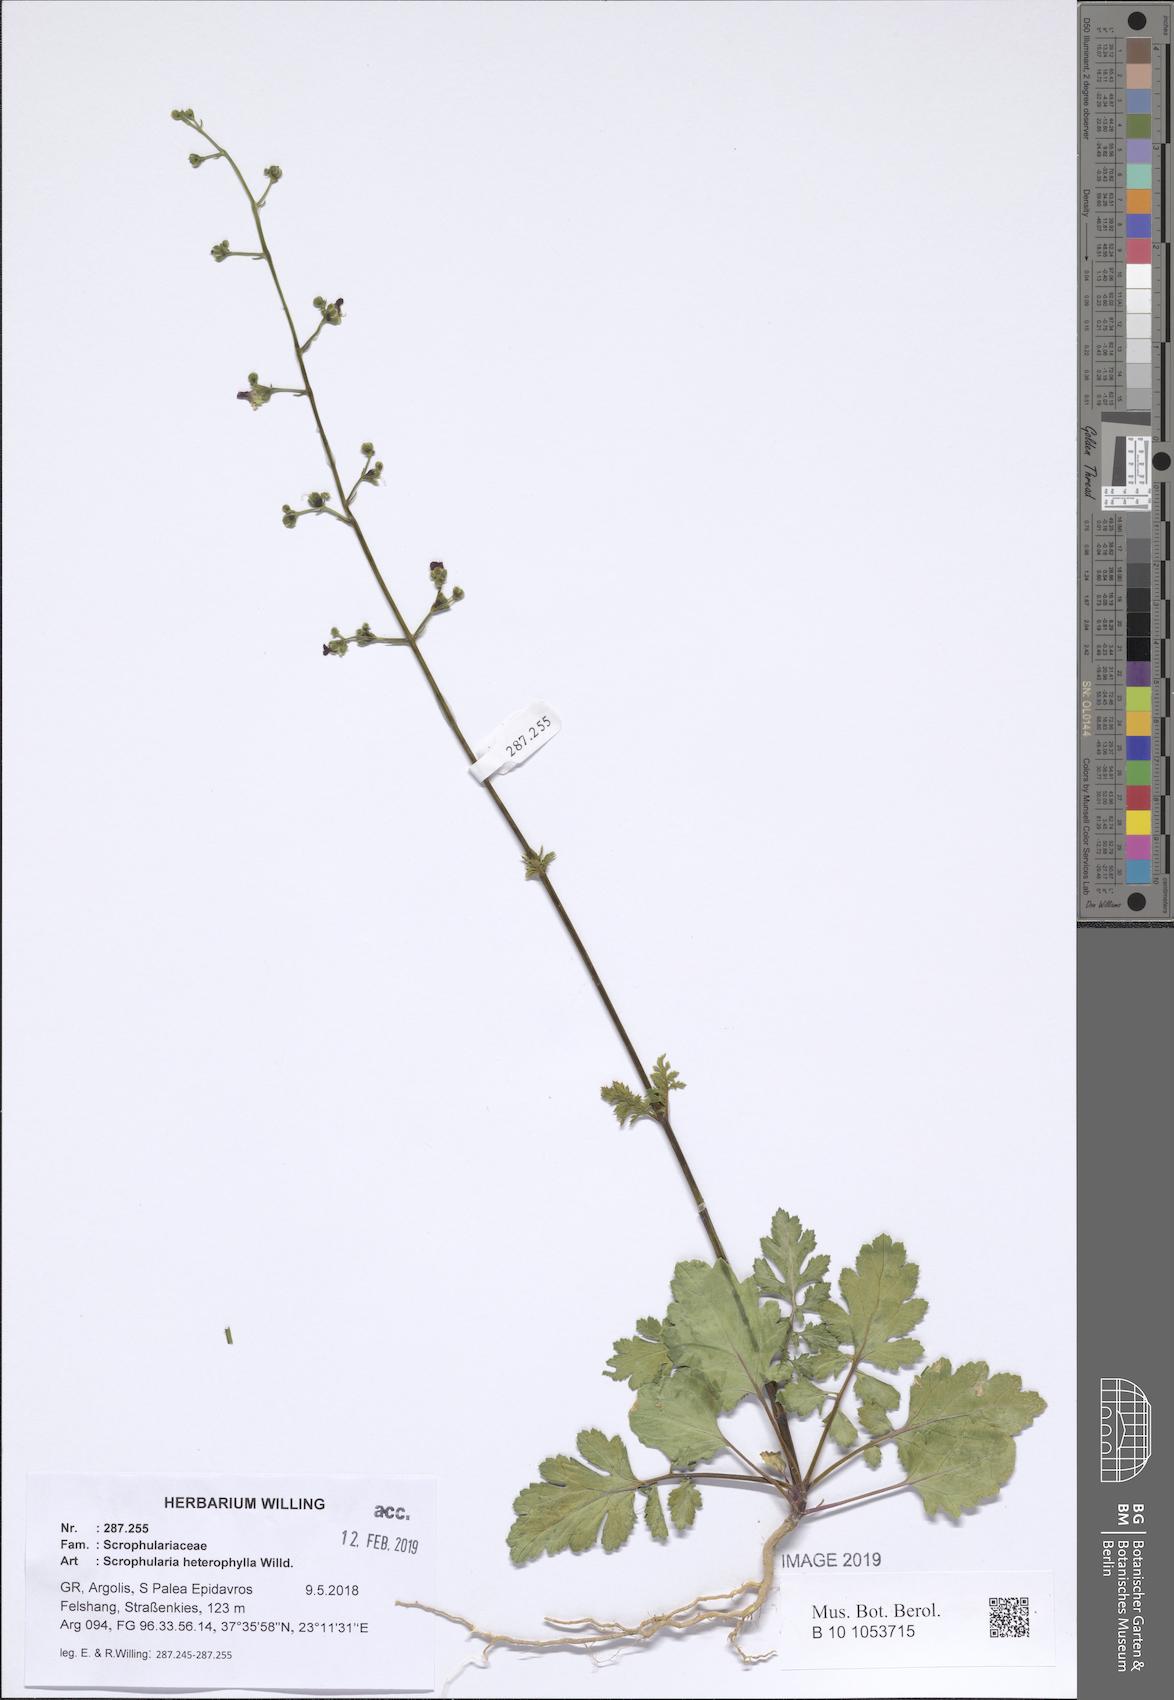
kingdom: Plantae
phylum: Tracheophyta
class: Magnoliopsida
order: Lamiales
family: Scrophulariaceae
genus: Scrophularia
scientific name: Scrophularia heterophylla
